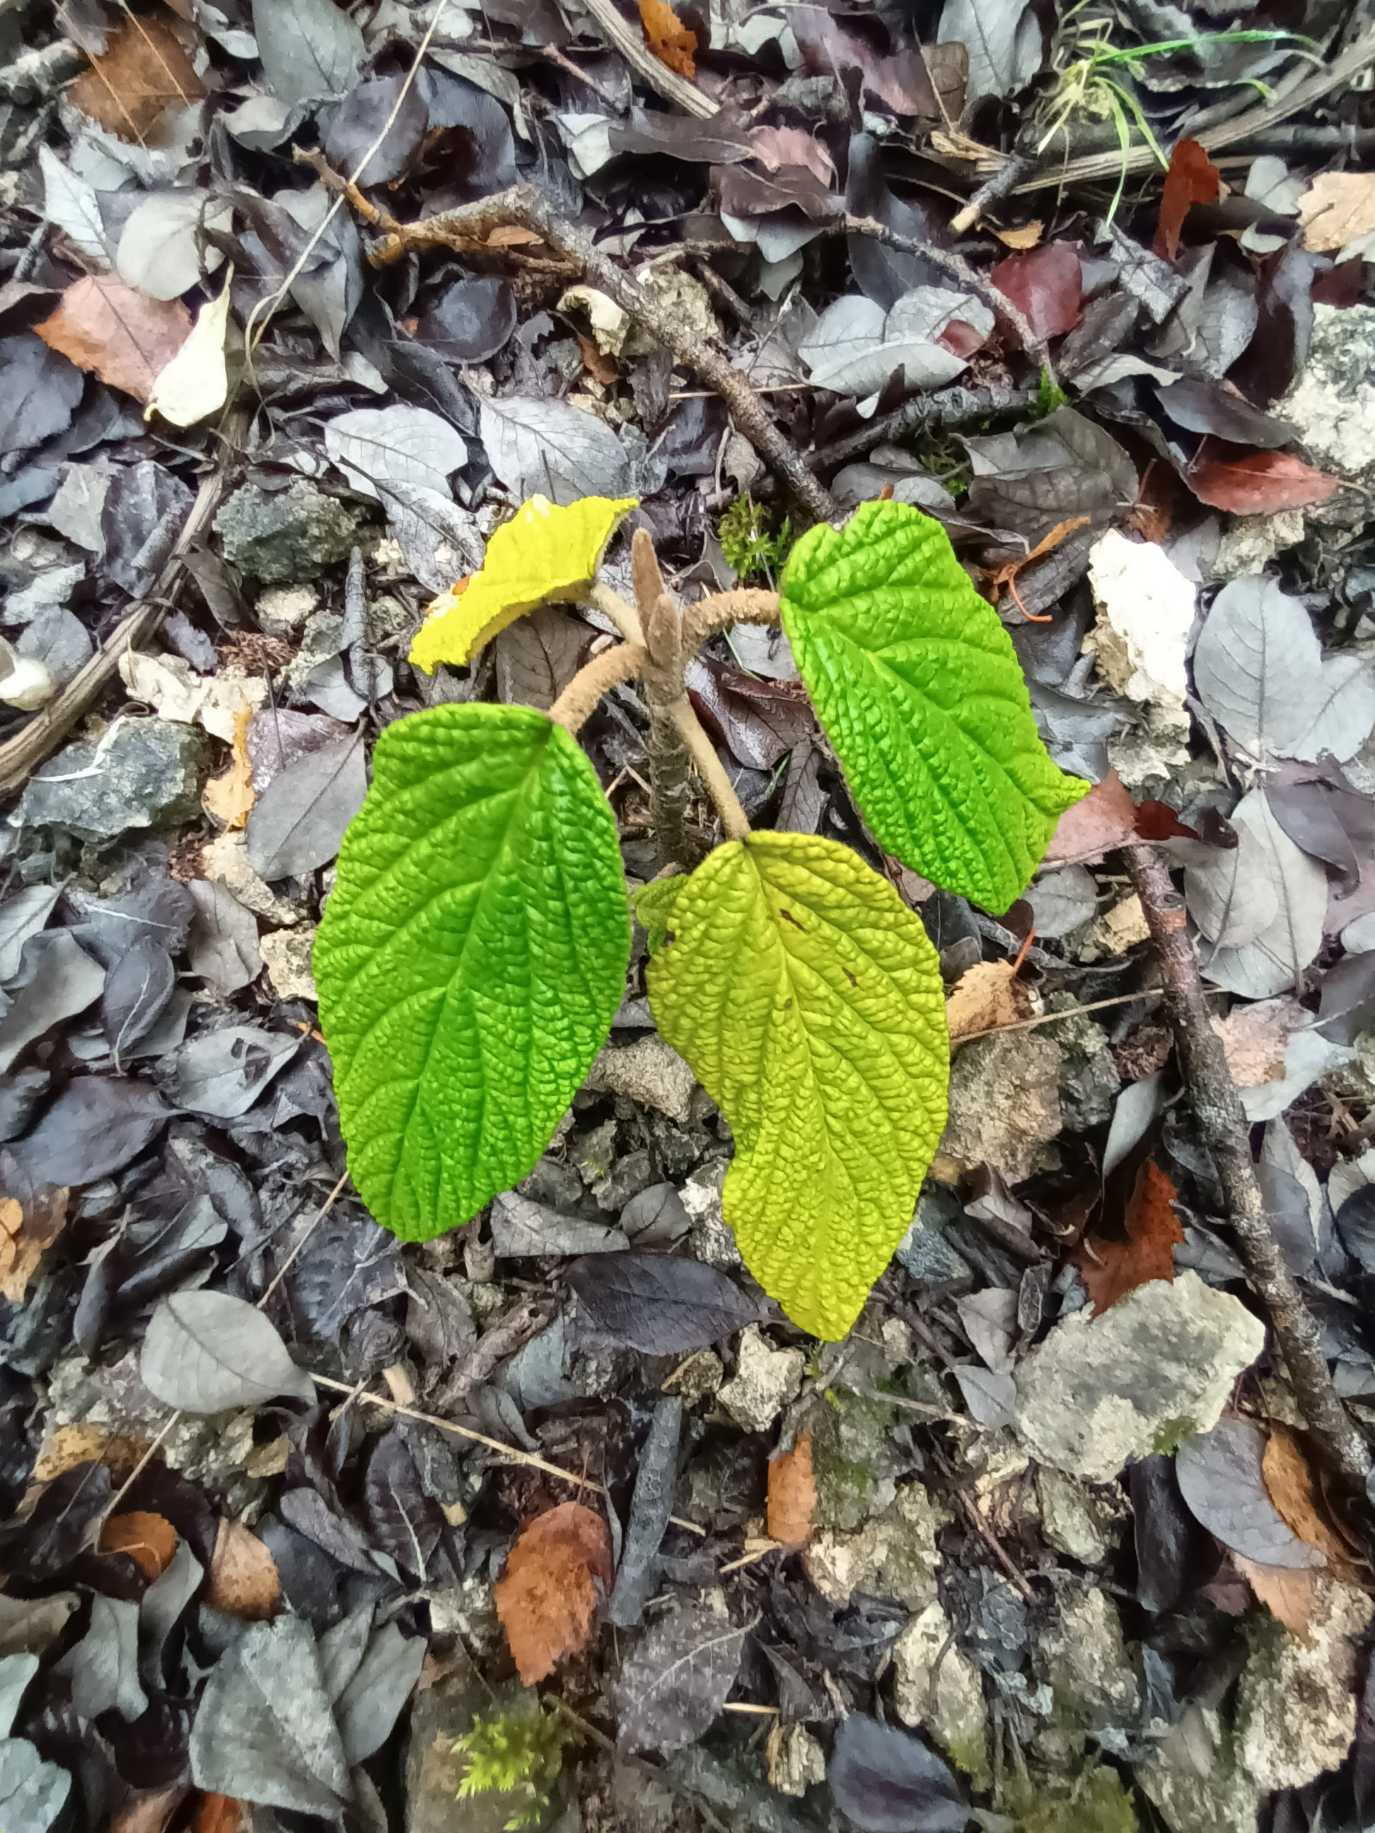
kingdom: Plantae
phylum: Tracheophyta
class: Magnoliopsida
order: Dipsacales
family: Viburnaceae
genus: Viburnum
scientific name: Viburnum rhytidophyllum
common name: Rynkeblad
